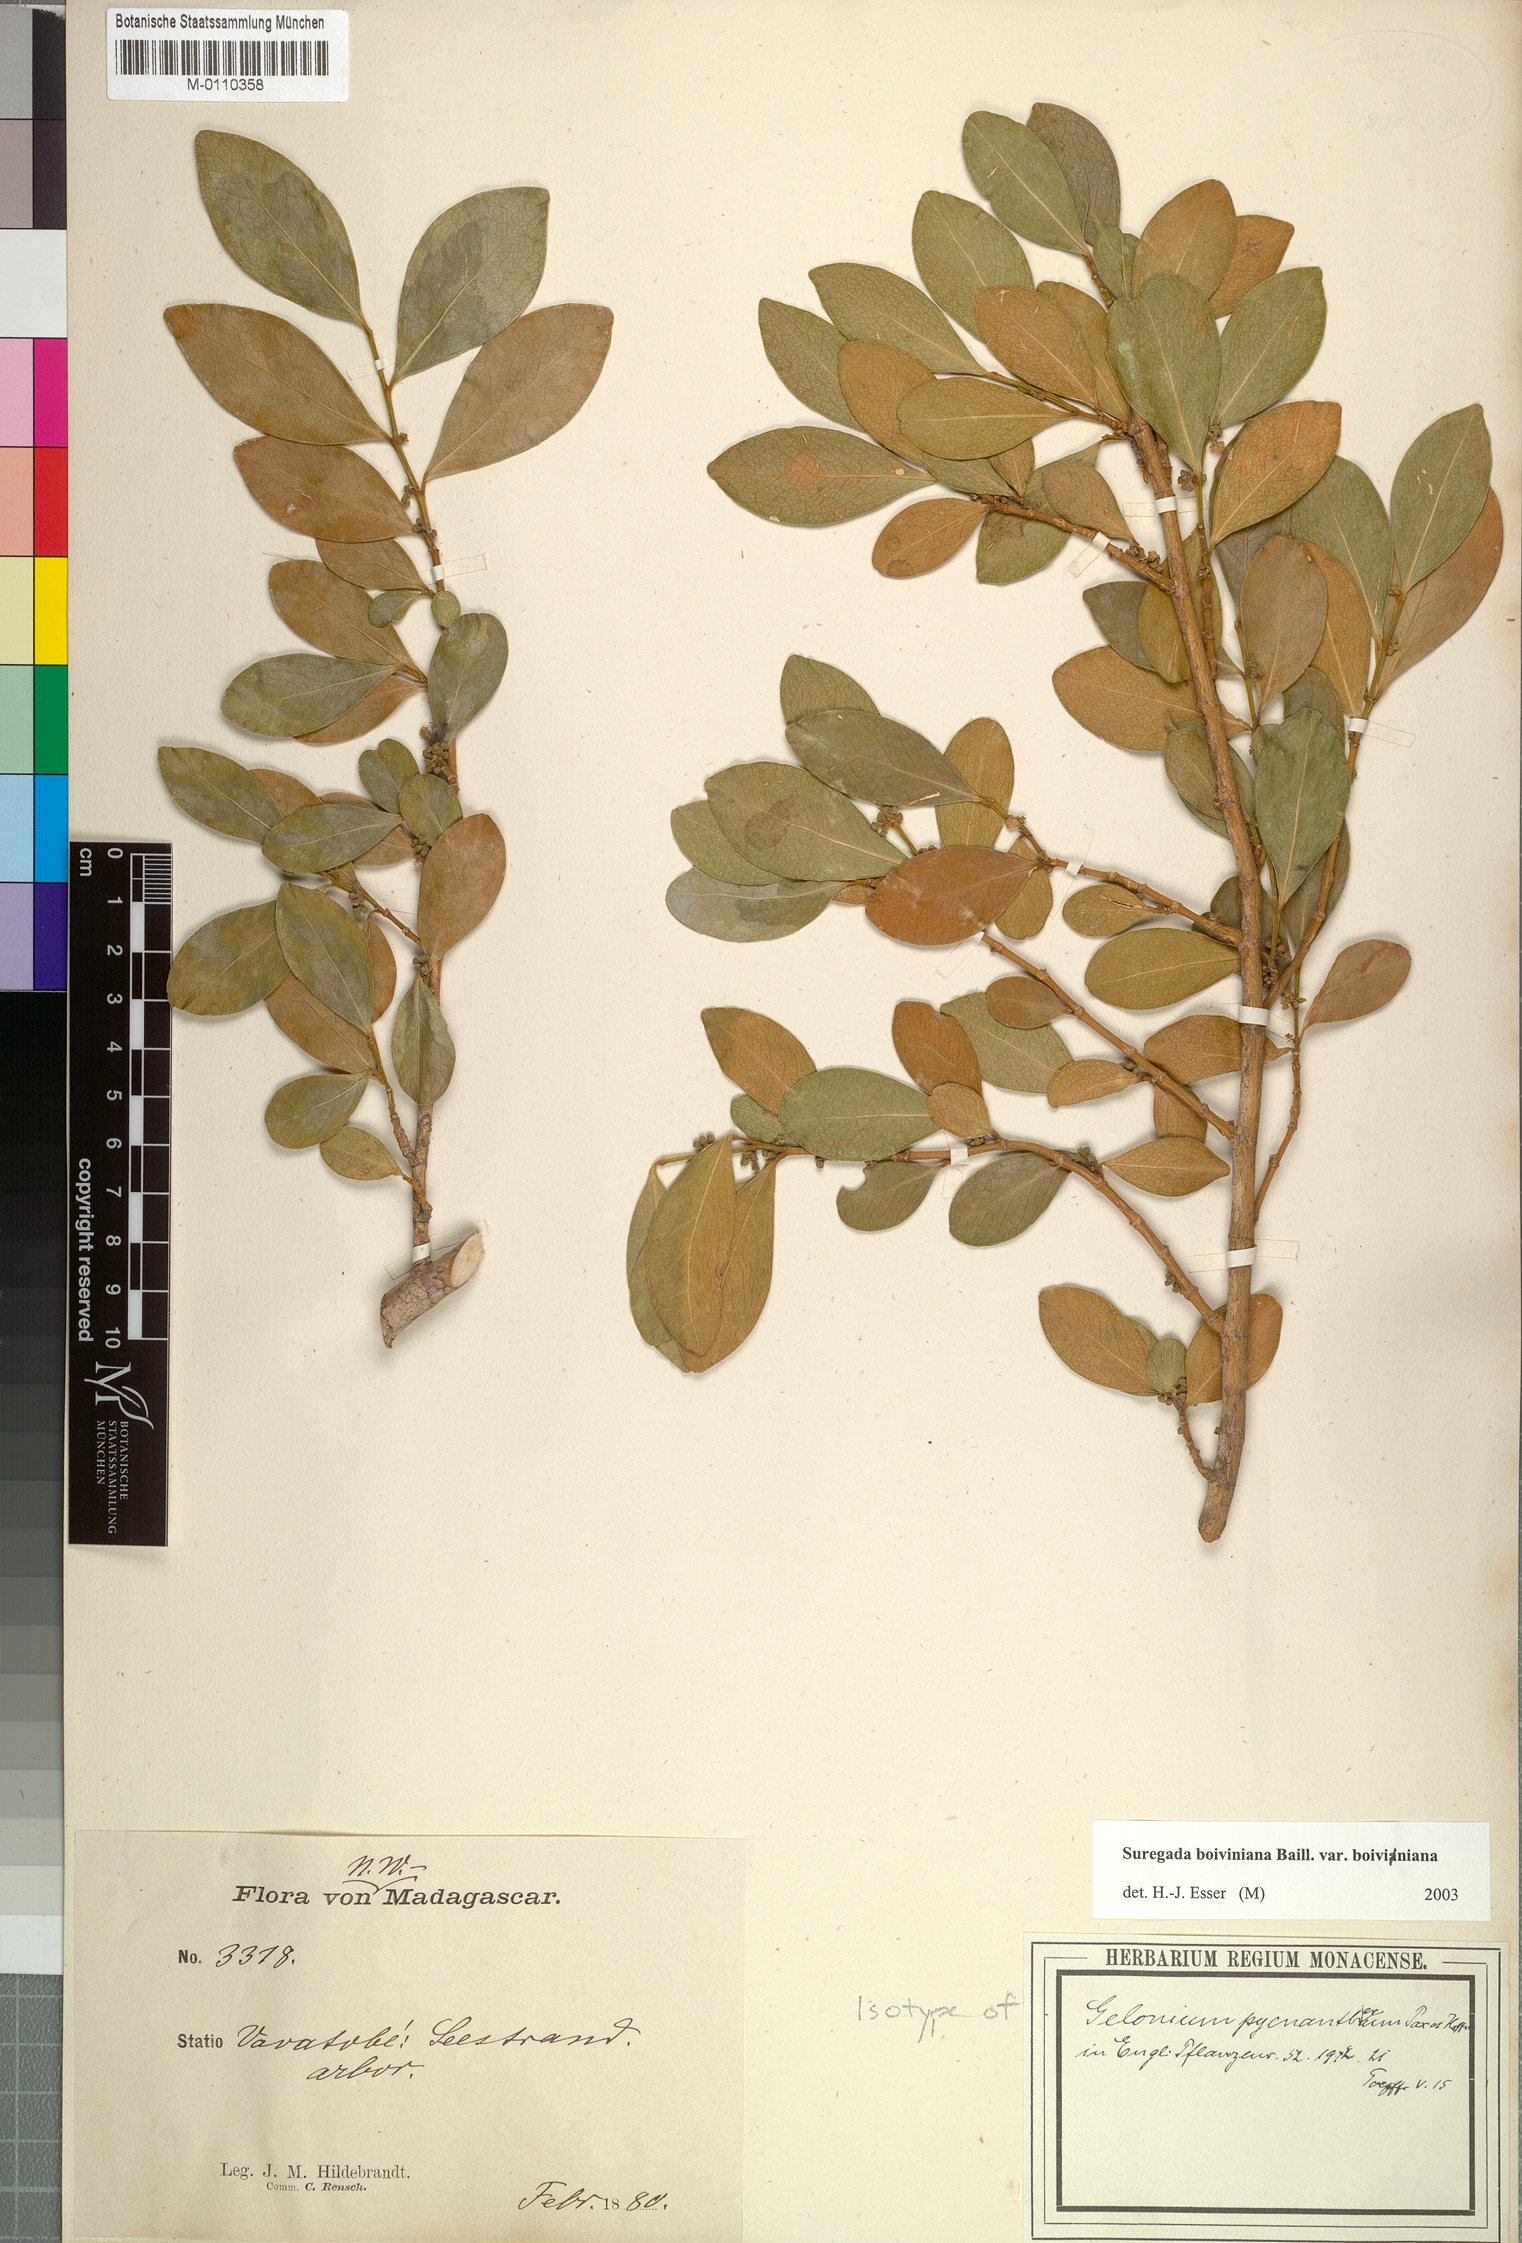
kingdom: Plantae
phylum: Tracheophyta
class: Magnoliopsida
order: Malpighiales
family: Euphorbiaceae
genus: Suregada
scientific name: Suregada boiviniana
